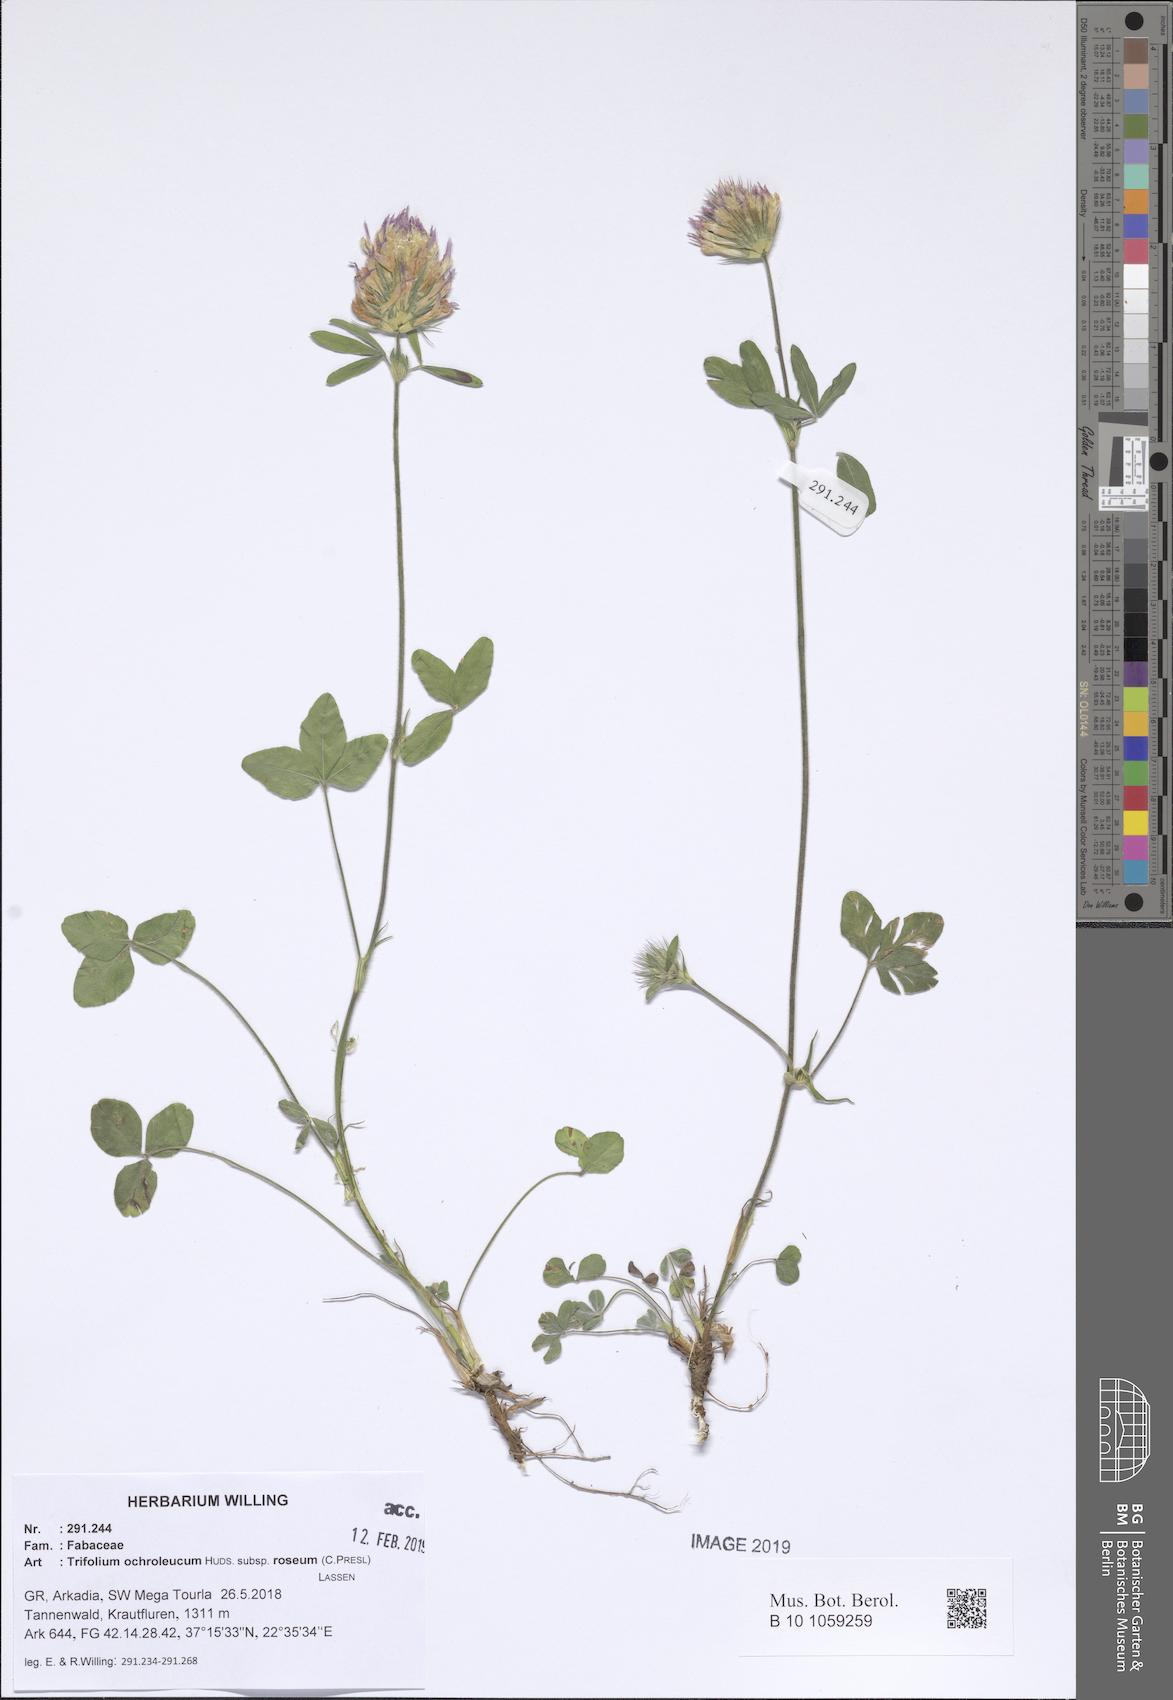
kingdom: Plantae
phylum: Tracheophyta
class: Magnoliopsida
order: Fabales
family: Fabaceae
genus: Trifolium
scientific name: Trifolium ochroleucon
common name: Sulphur clover
